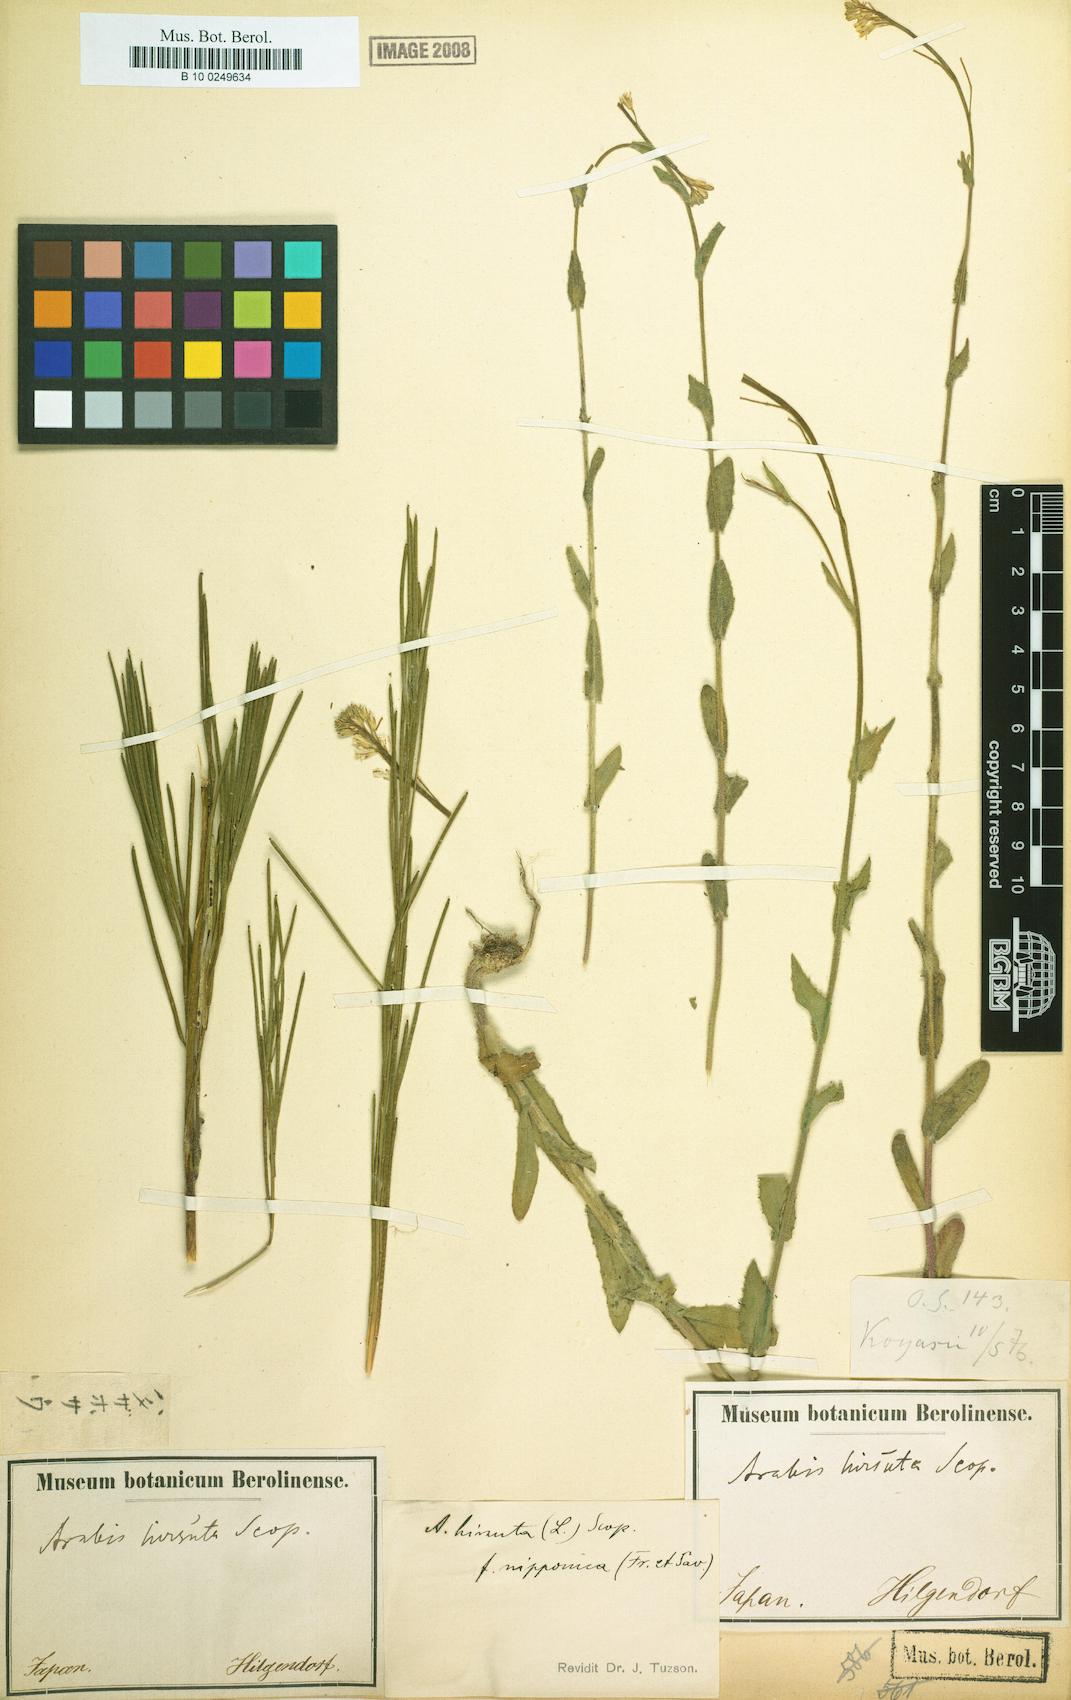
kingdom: Plantae
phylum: Tracheophyta
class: Magnoliopsida
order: Brassicales
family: Brassicaceae
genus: Arabis
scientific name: Arabis nipponica
